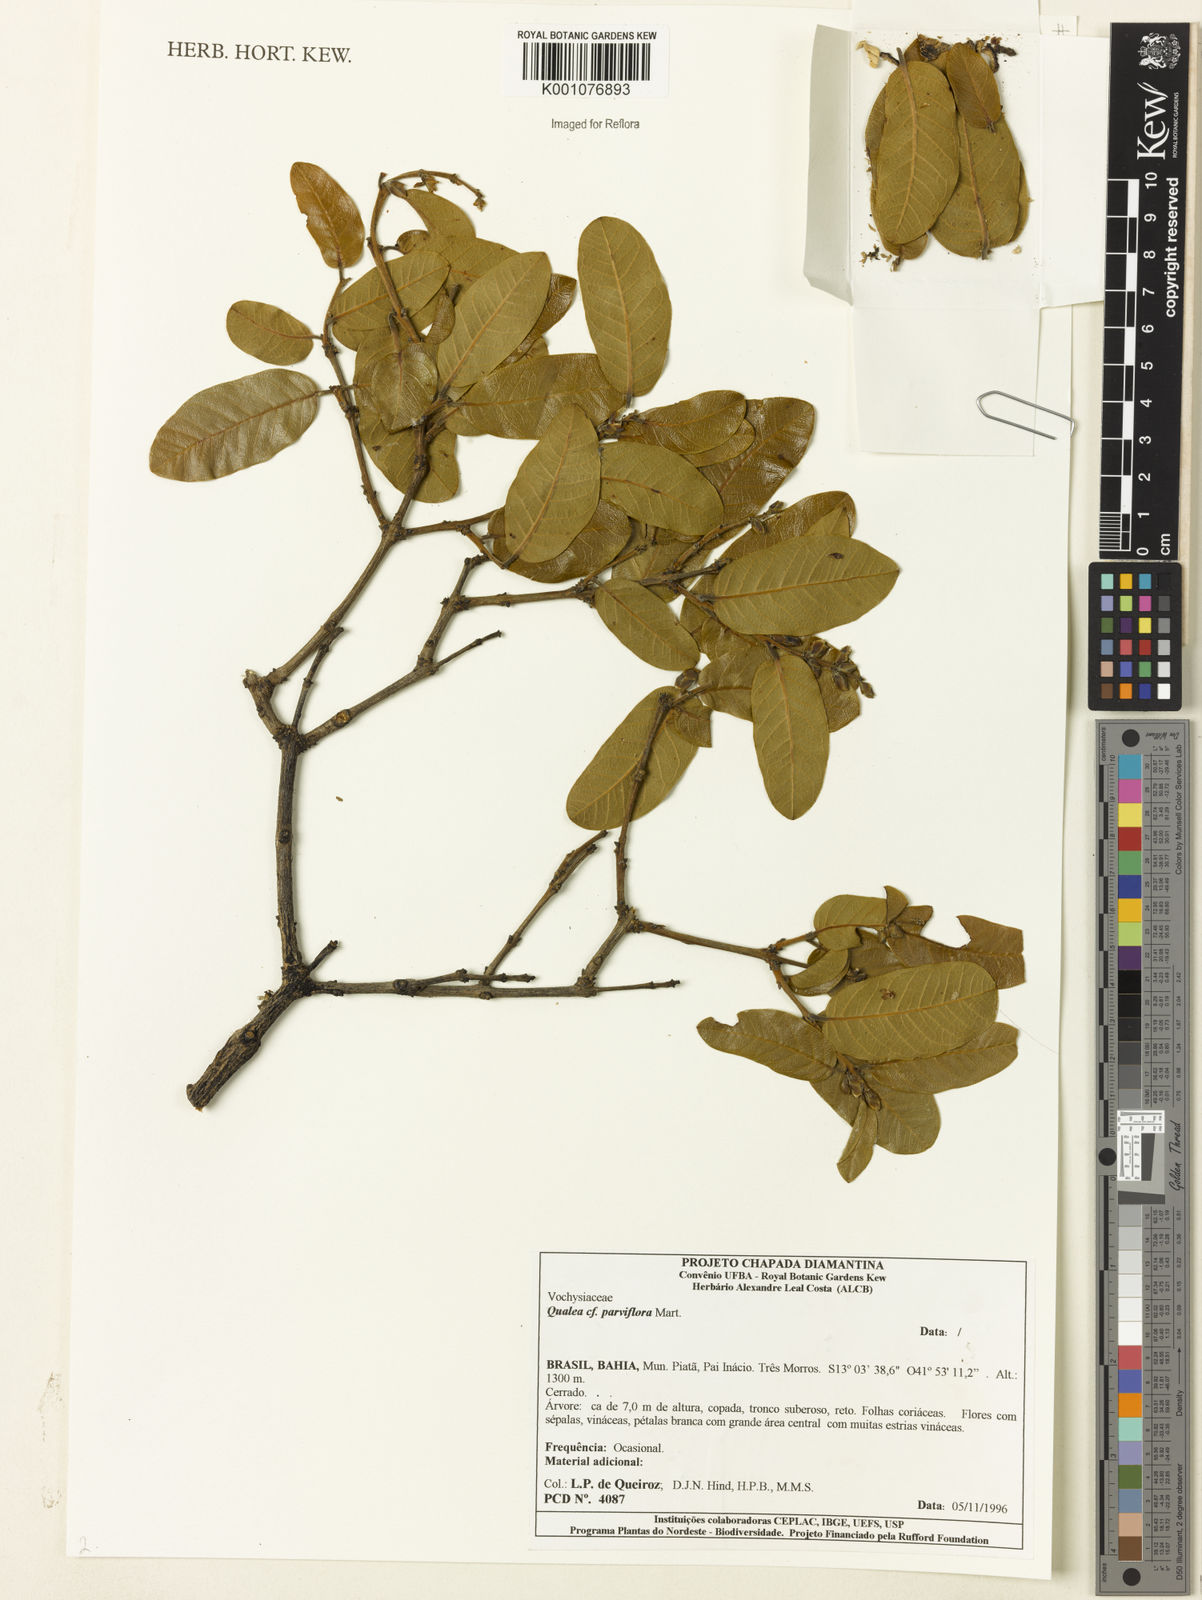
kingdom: Plantae
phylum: Tracheophyta
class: Magnoliopsida
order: Myrtales
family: Vochysiaceae
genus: Qualea
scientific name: Qualea parviflora
